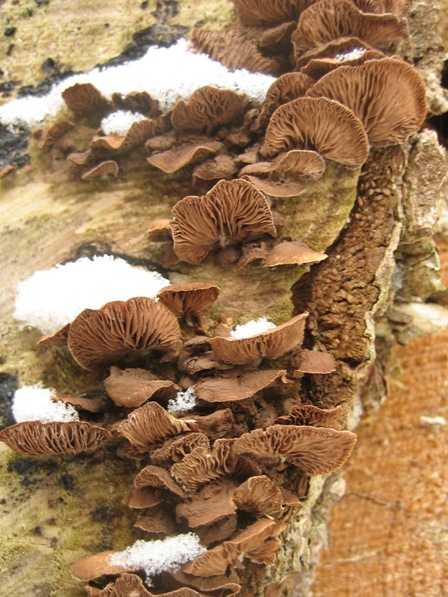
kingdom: Fungi
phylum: Basidiomycota
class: Agaricomycetes
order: Agaricales
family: Strophariaceae
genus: Deconica
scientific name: Deconica horizontalis
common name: ved-stråhat
